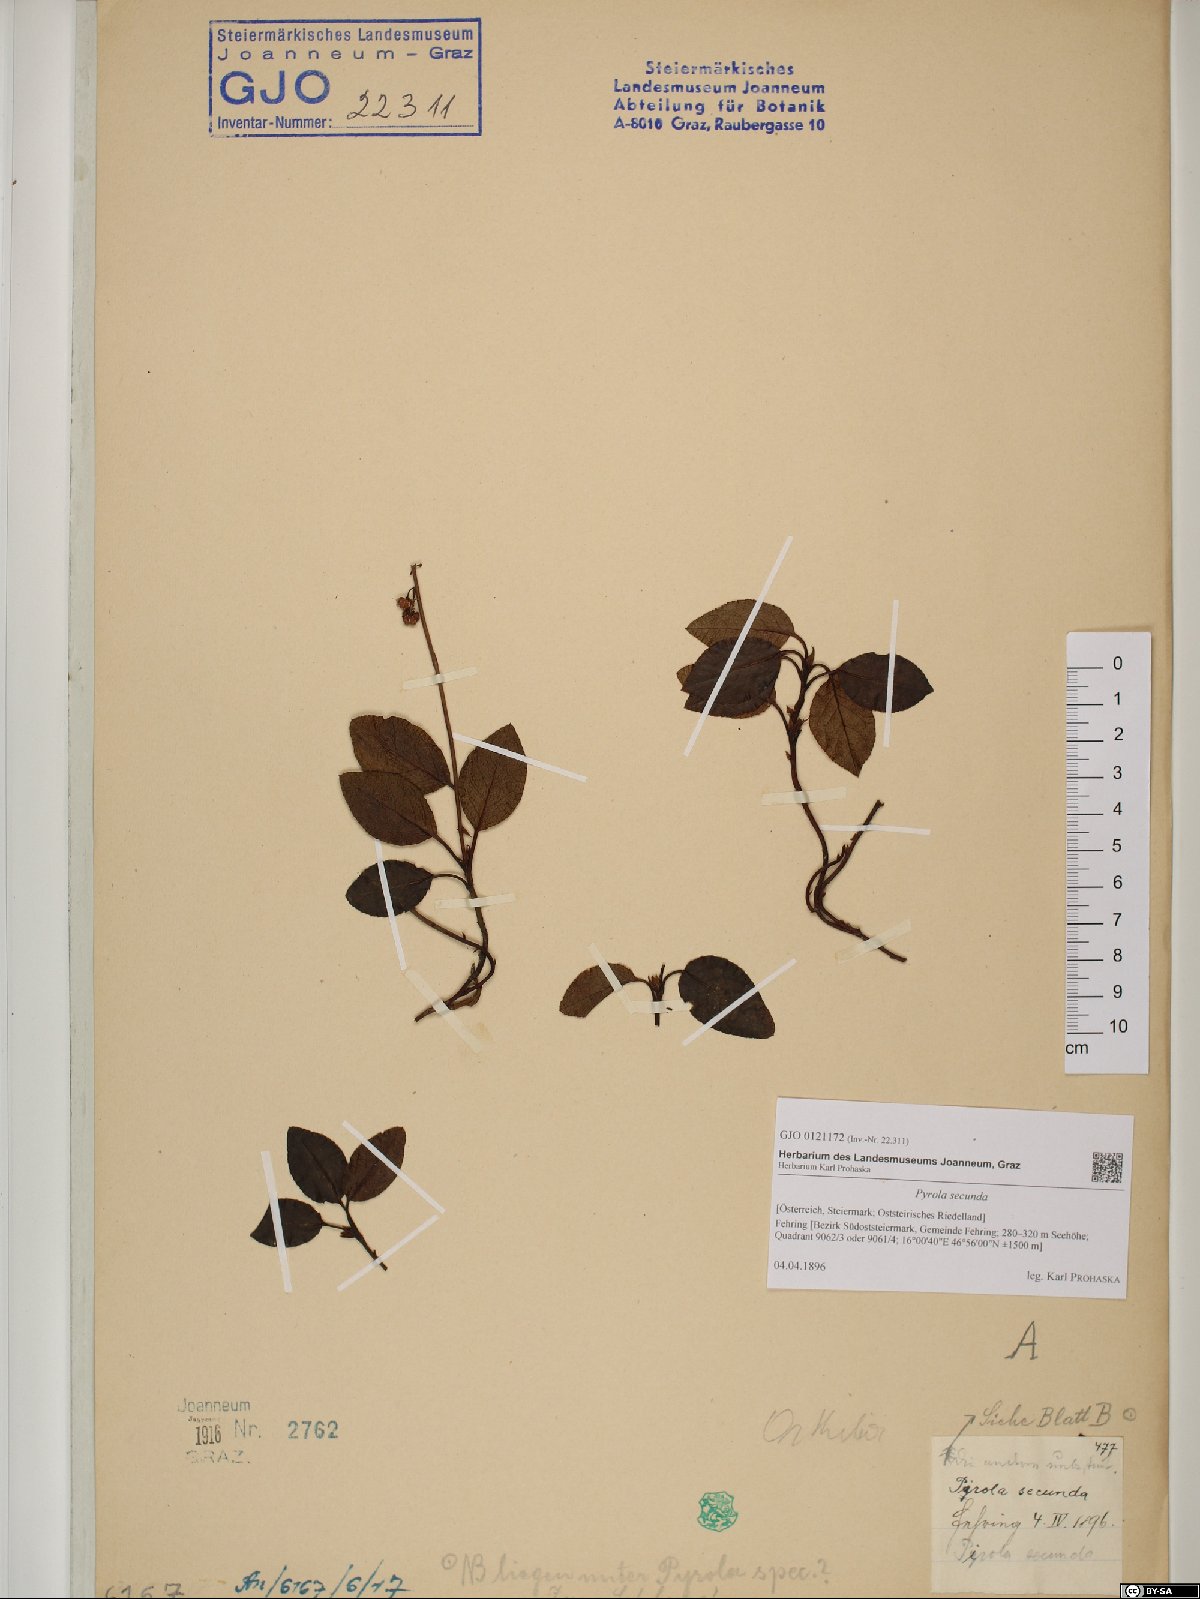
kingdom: Plantae
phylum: Tracheophyta
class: Magnoliopsida
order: Ericales
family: Ericaceae
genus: Orthilia
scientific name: Orthilia secunda
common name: One-sided orthilia
